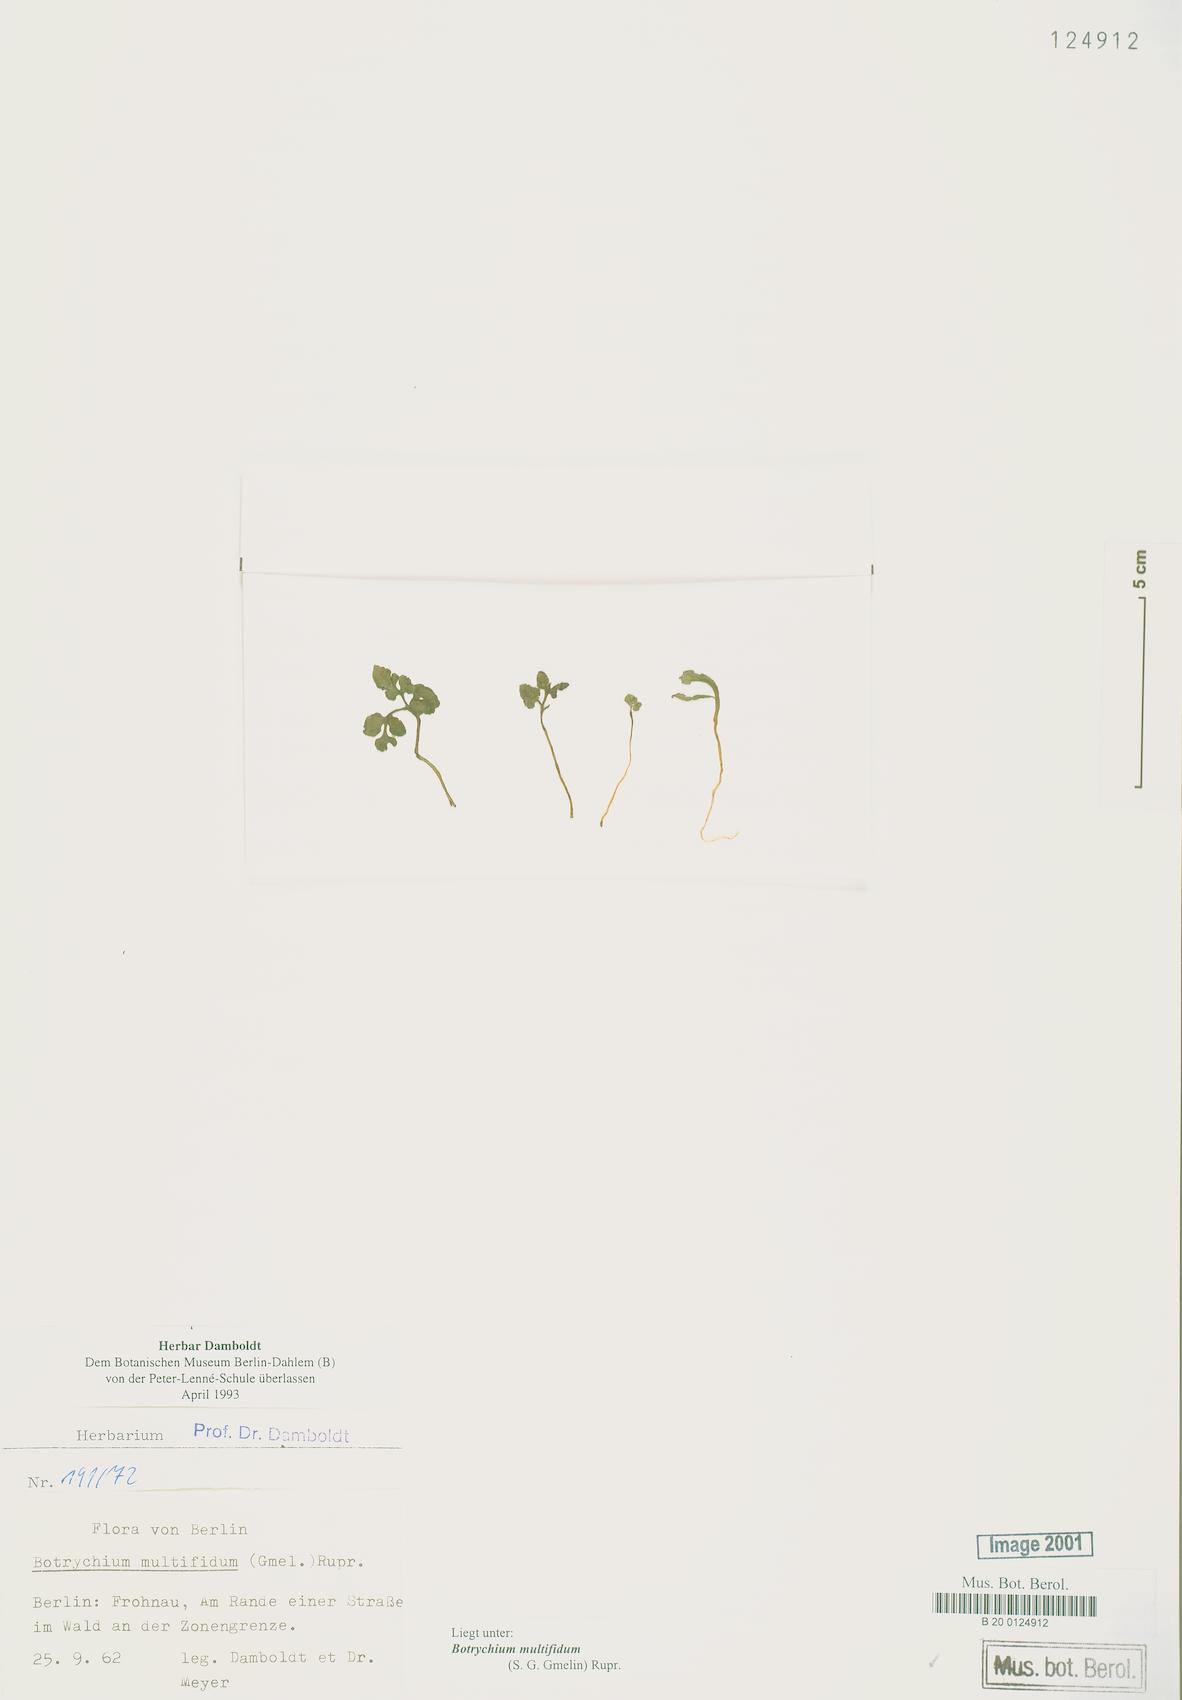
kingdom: Plantae
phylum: Tracheophyta
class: Polypodiopsida
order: Ophioglossales
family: Ophioglossaceae
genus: Sceptridium
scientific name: Sceptridium multifidum
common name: Leathery grape fern
